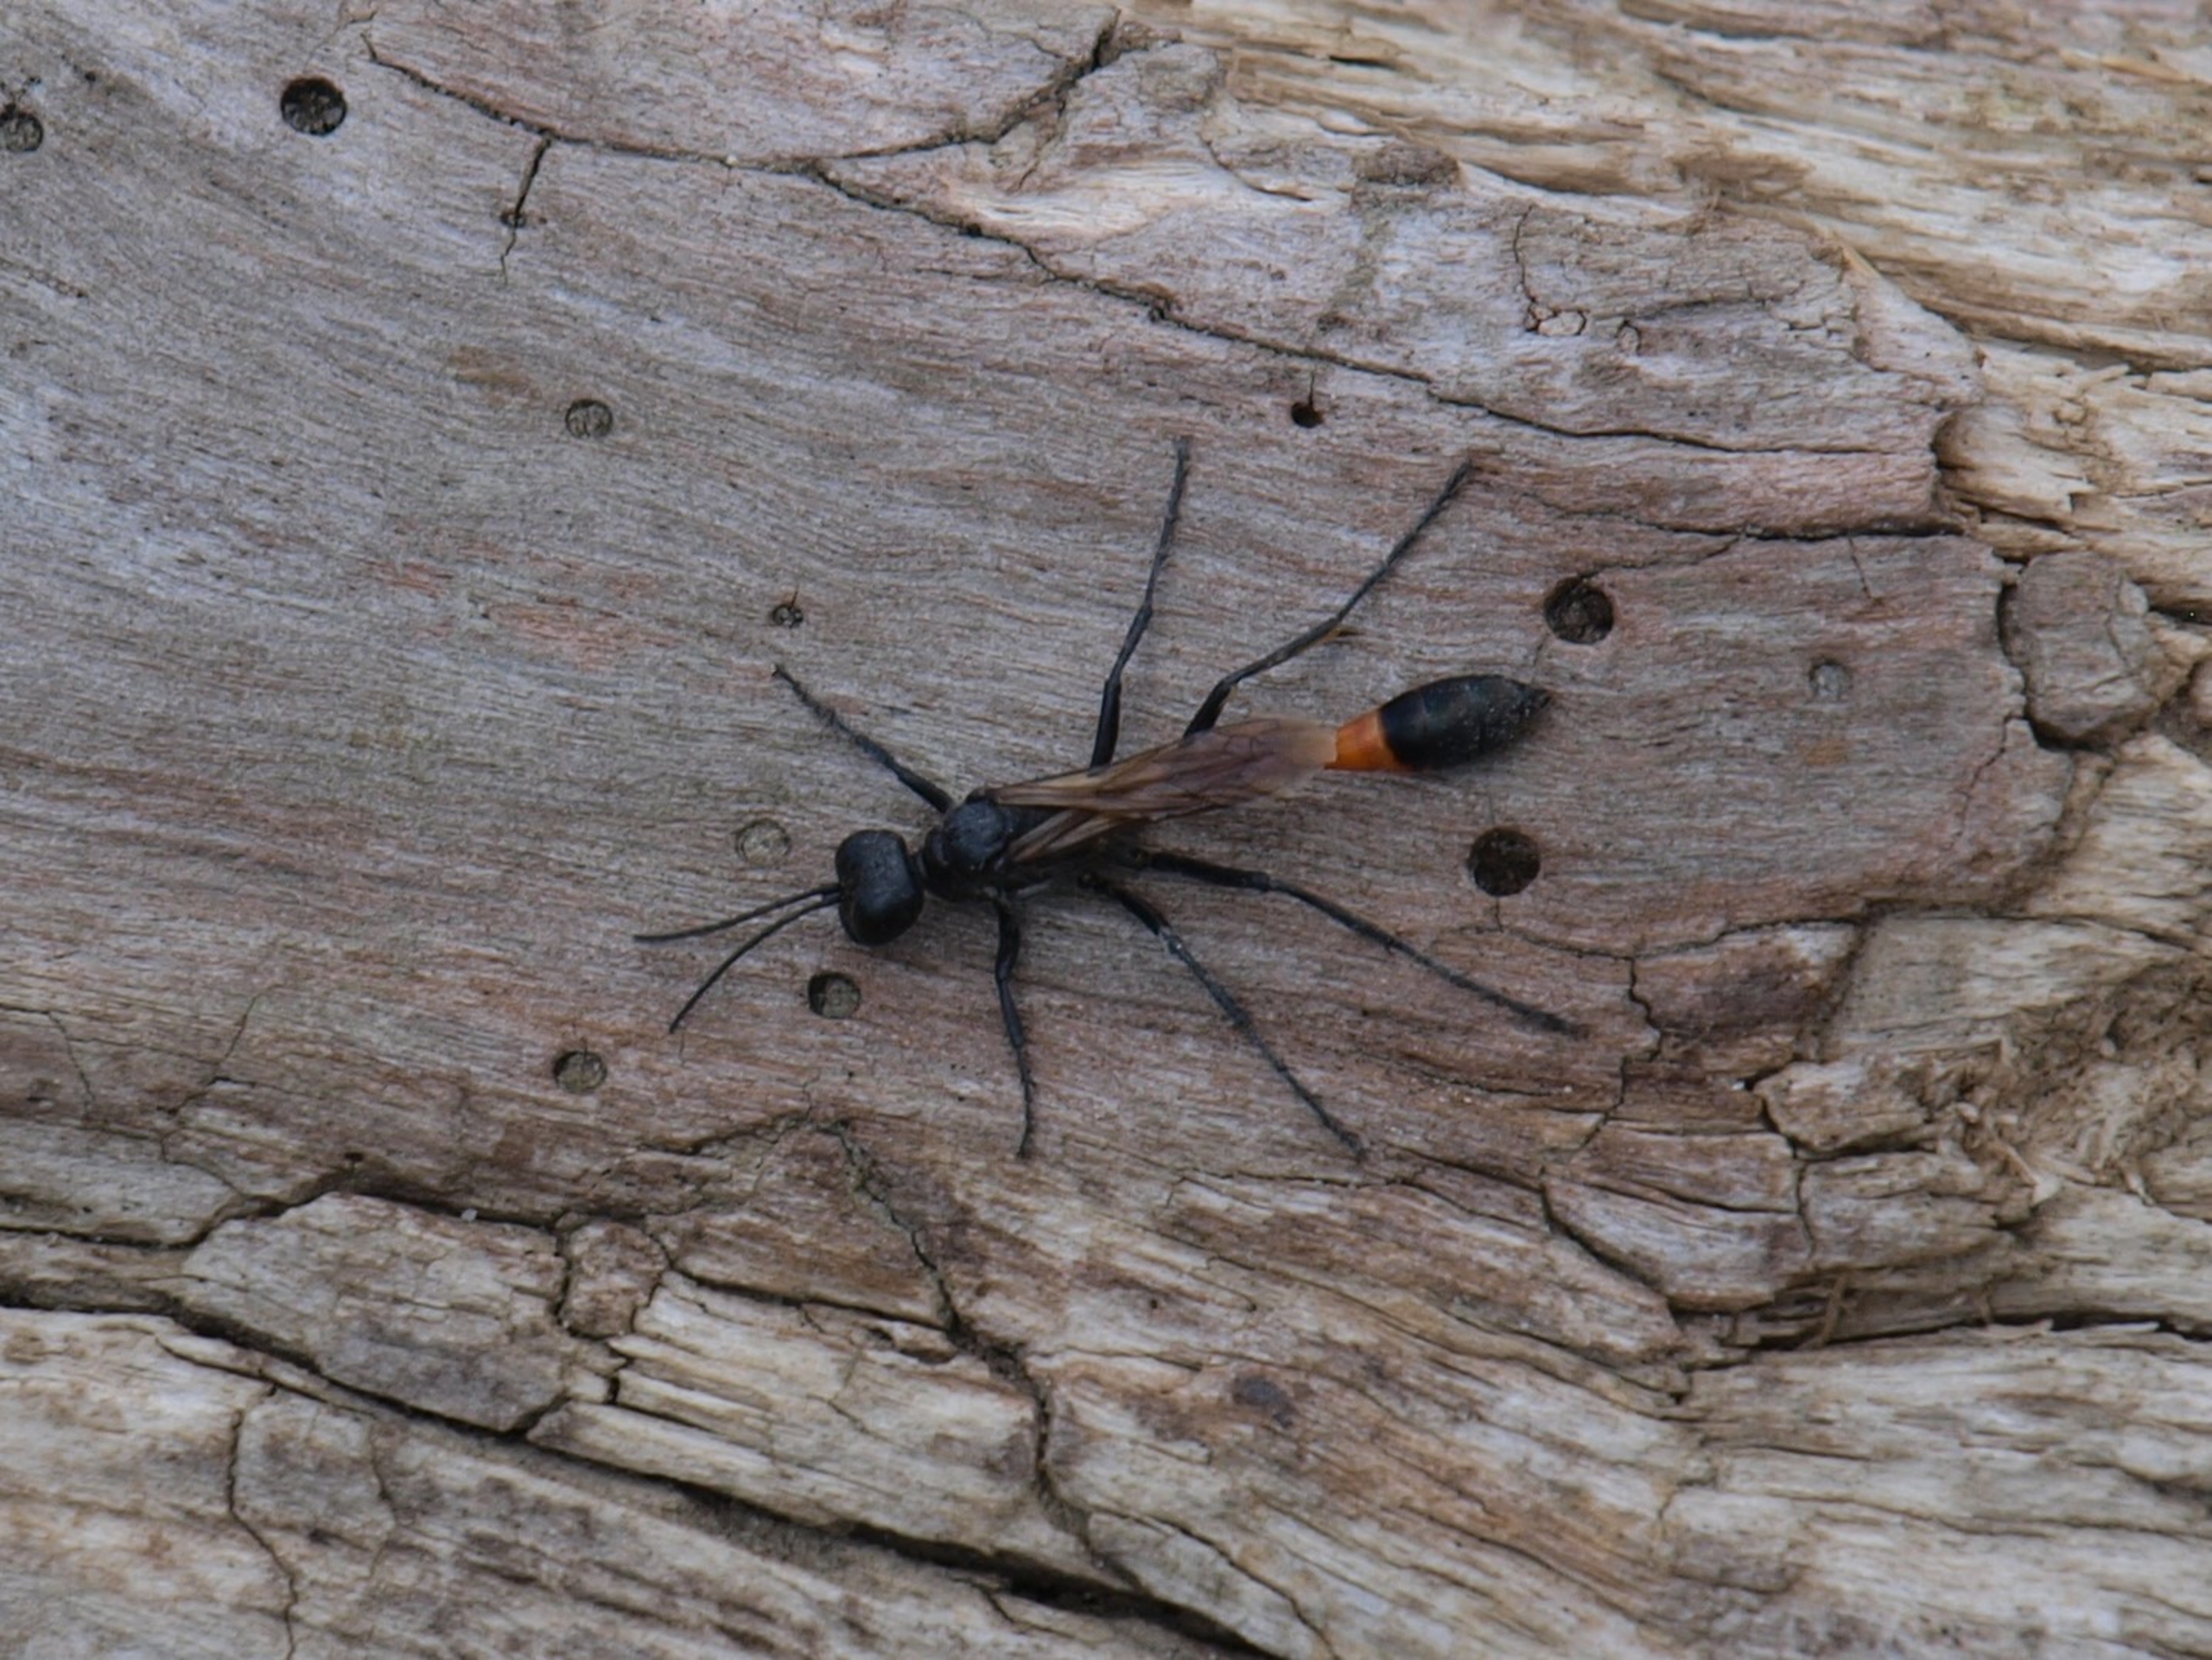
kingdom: Animalia
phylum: Arthropoda
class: Insecta
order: Hymenoptera
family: Sphecidae
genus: Ammophila
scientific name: Ammophila sabulosa
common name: Almindelig sandhveps
